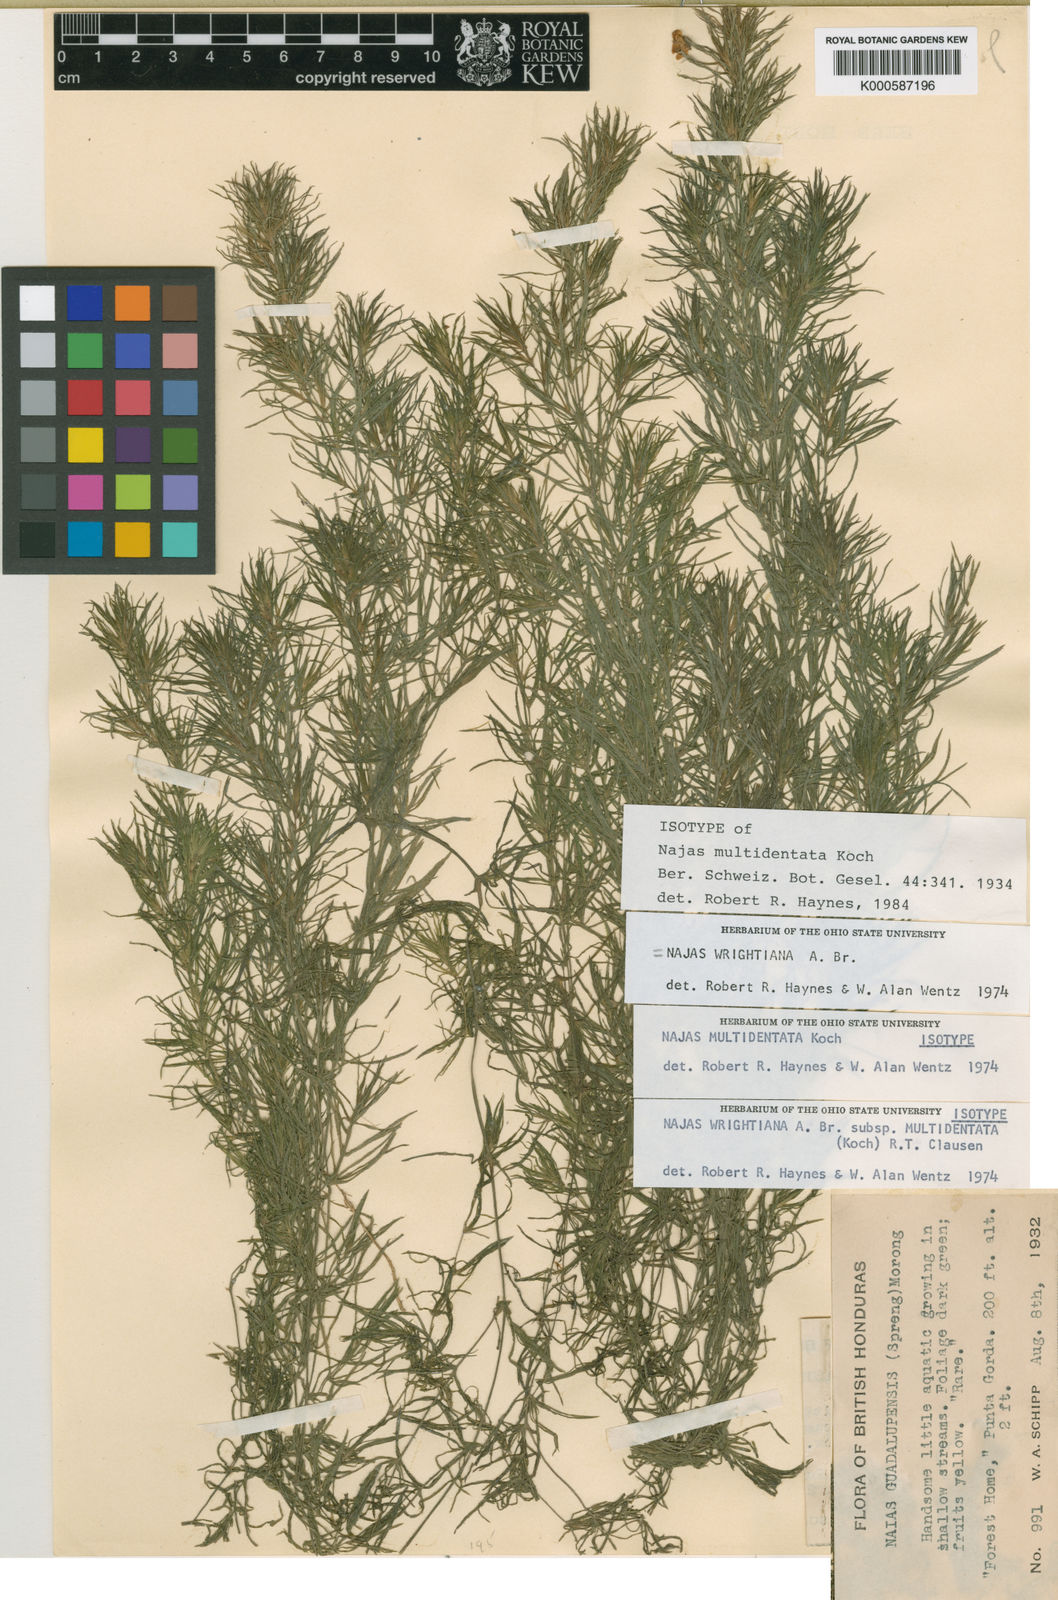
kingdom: Plantae
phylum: Tracheophyta
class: Liliopsida
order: Alismatales
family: Hydrocharitaceae
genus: Najas
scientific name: Najas wrightiana
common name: Wright's waternymph
